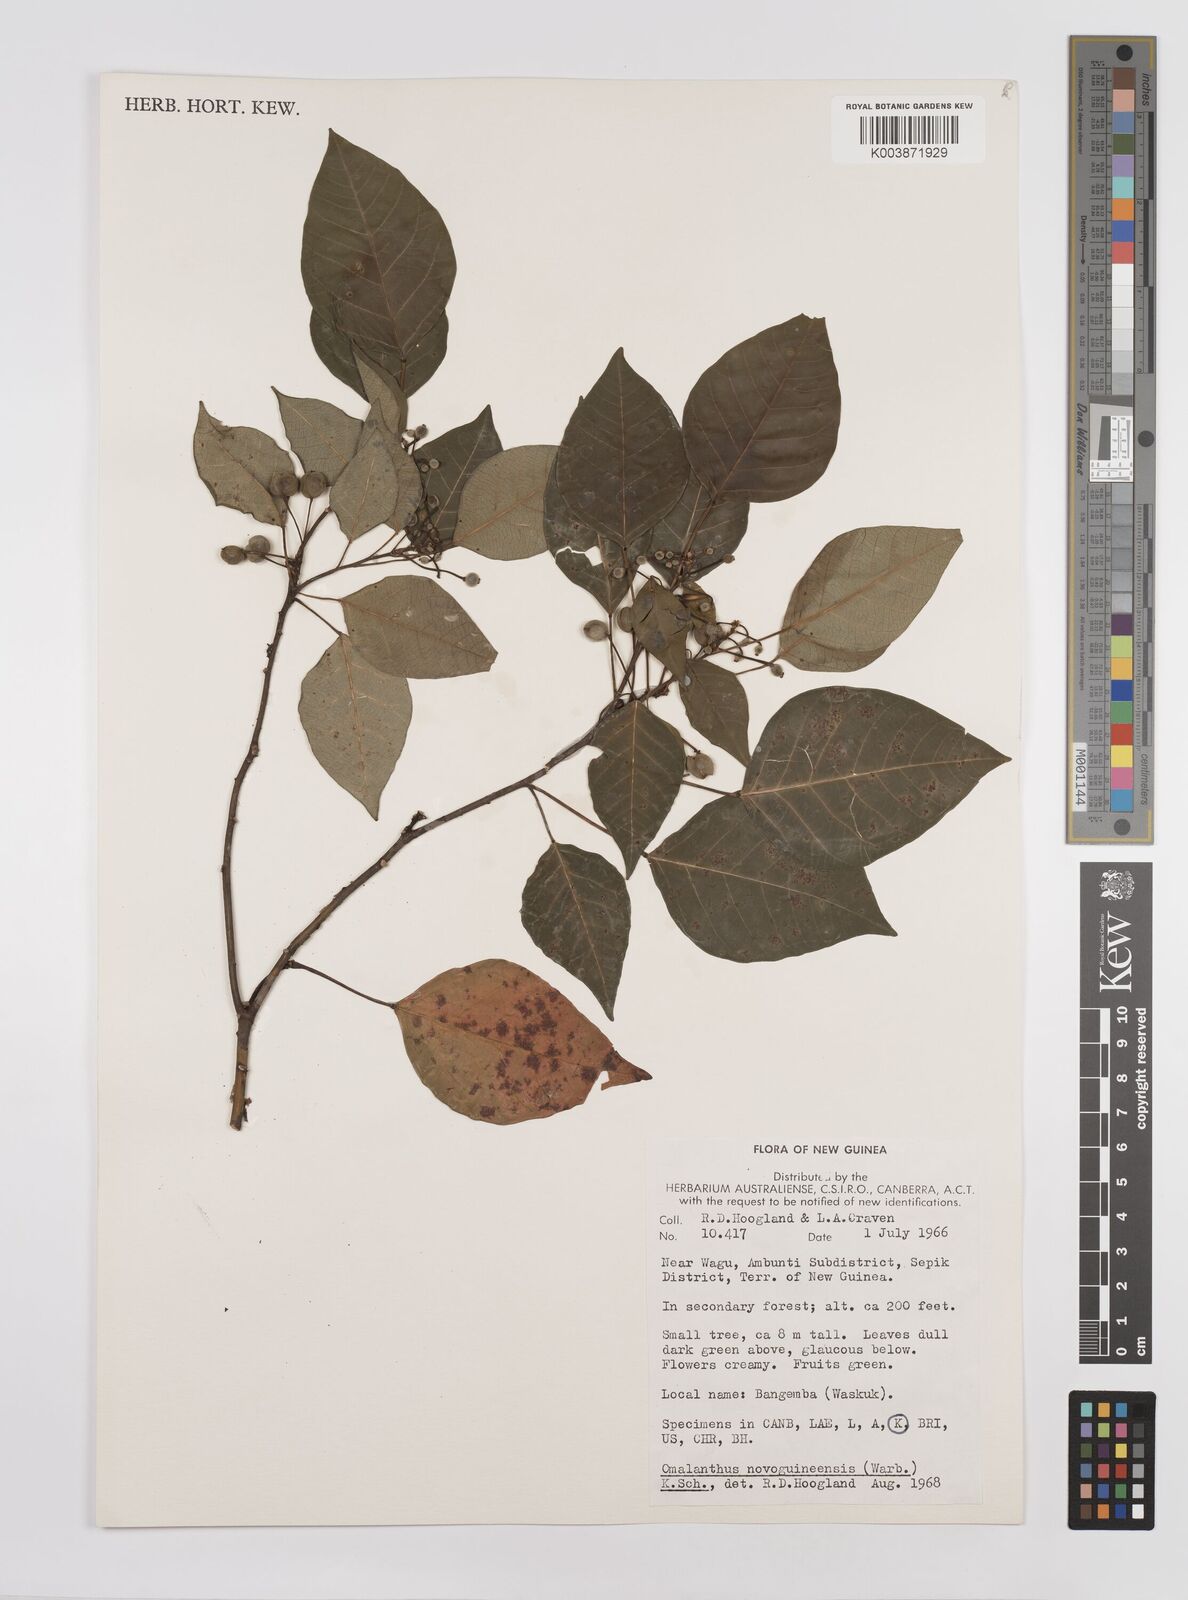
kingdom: Plantae
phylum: Tracheophyta
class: Magnoliopsida
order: Malpighiales
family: Euphorbiaceae
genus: Homalanthus
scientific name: Homalanthus novoguineensis
